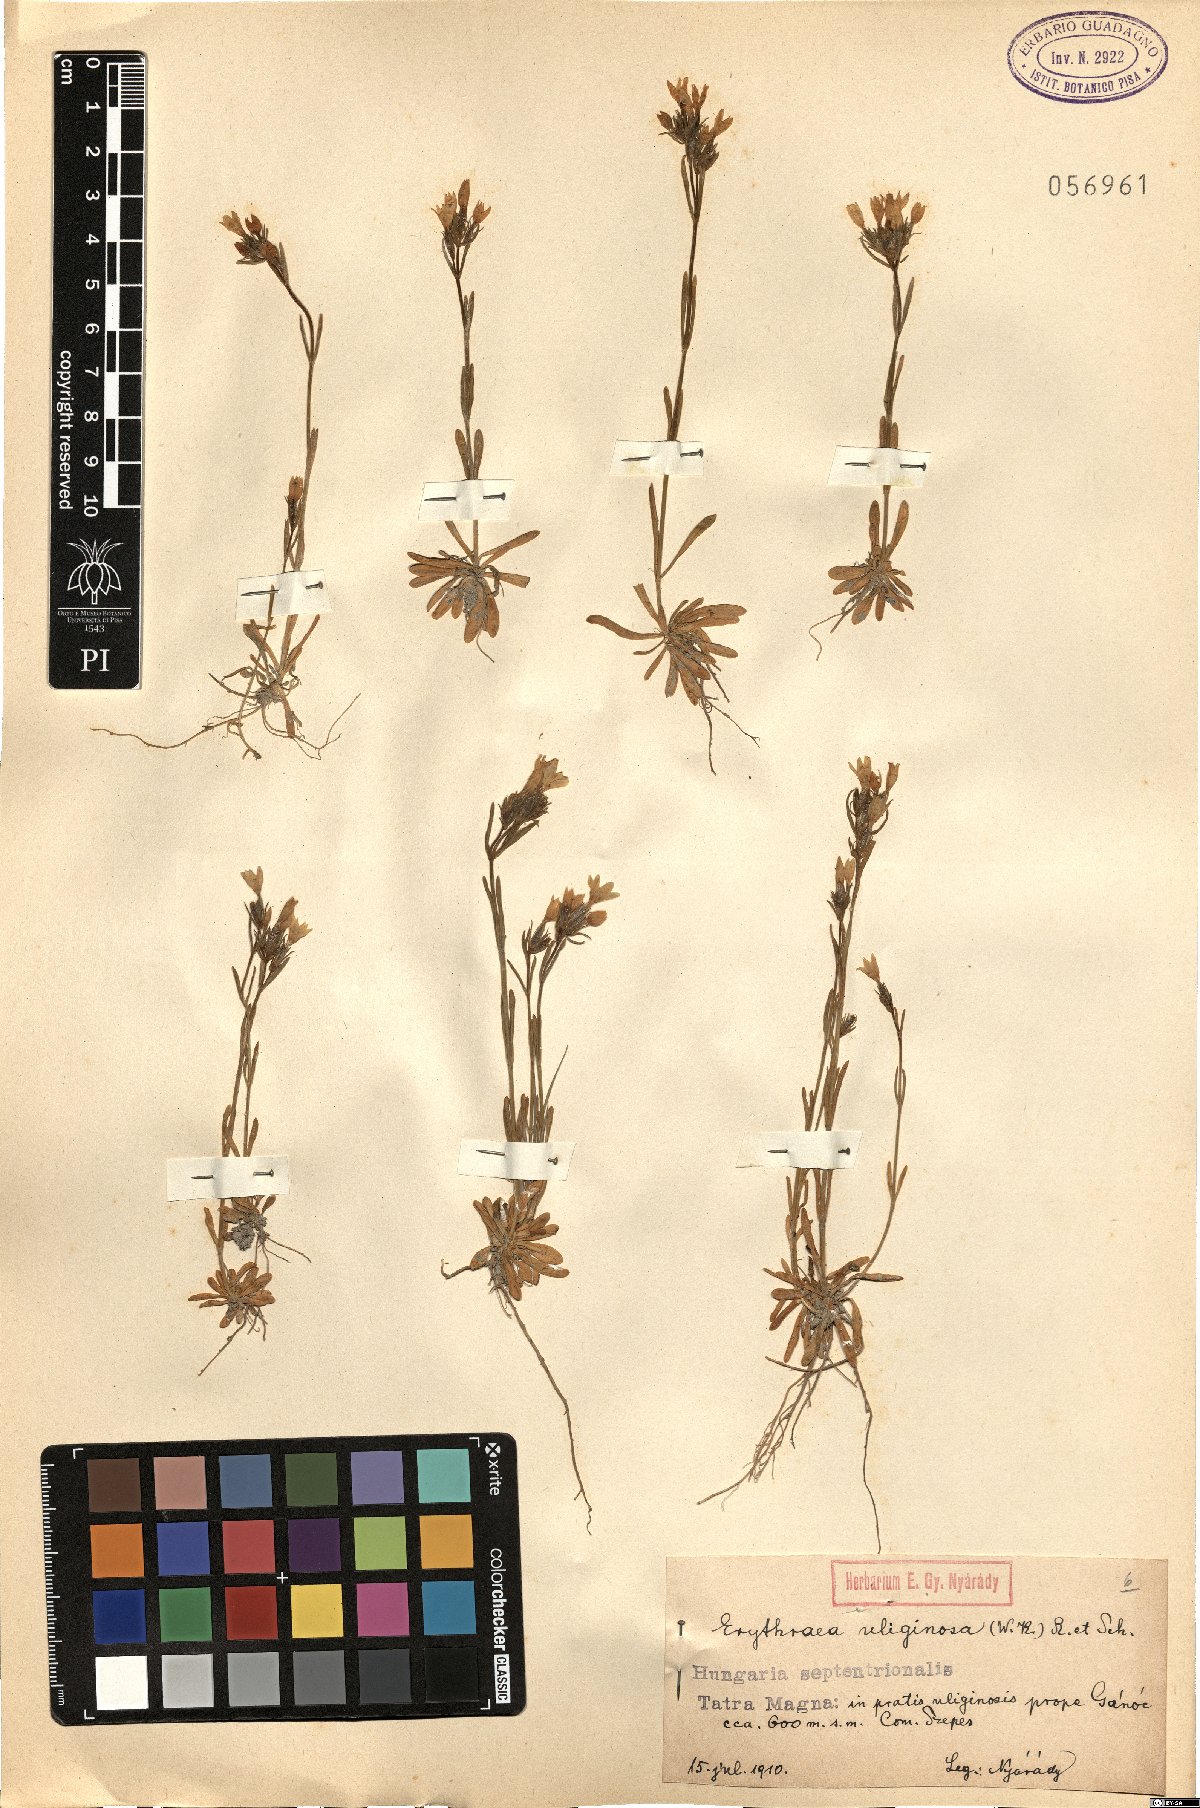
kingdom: Plantae
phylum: Tracheophyta
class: Magnoliopsida
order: Gentianales
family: Gentianaceae
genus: Centaurium
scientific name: Centaurium littorale
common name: Seaside centaury
